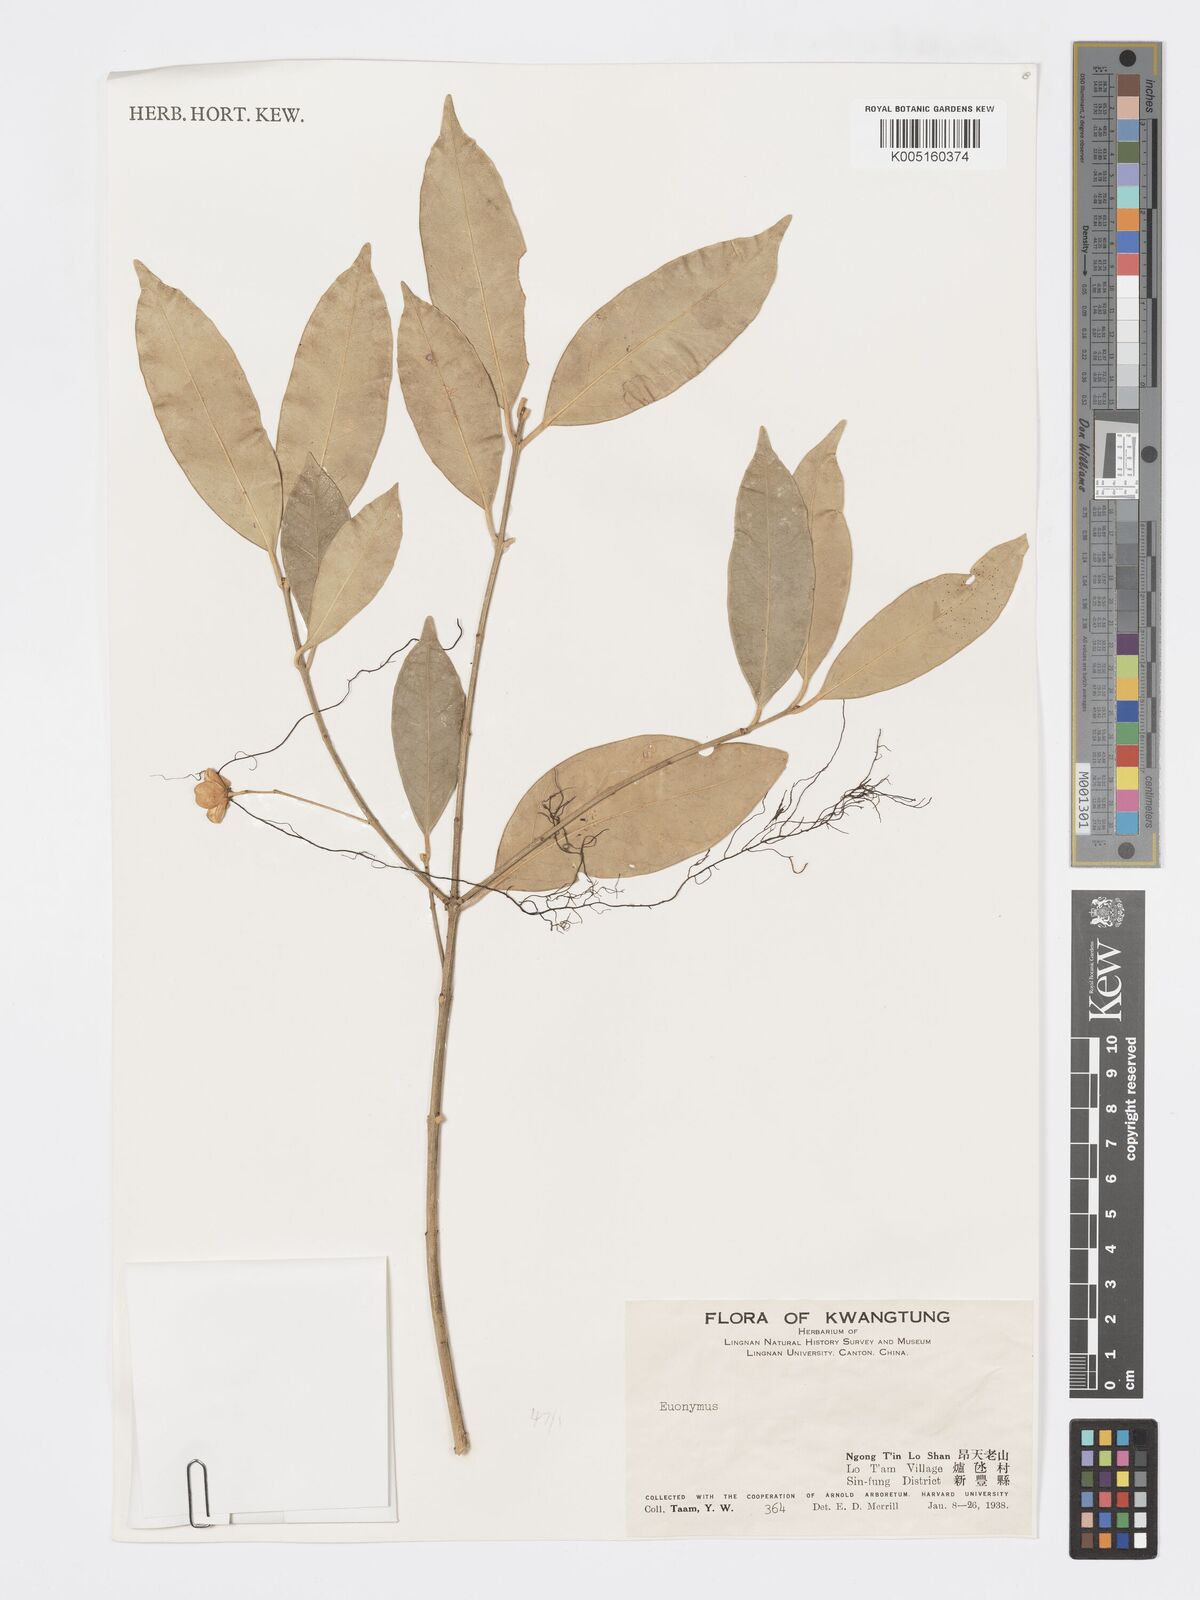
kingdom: Plantae
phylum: Tracheophyta
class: Magnoliopsida
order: Celastrales
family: Celastraceae
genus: Euonymus
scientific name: Euonymus
